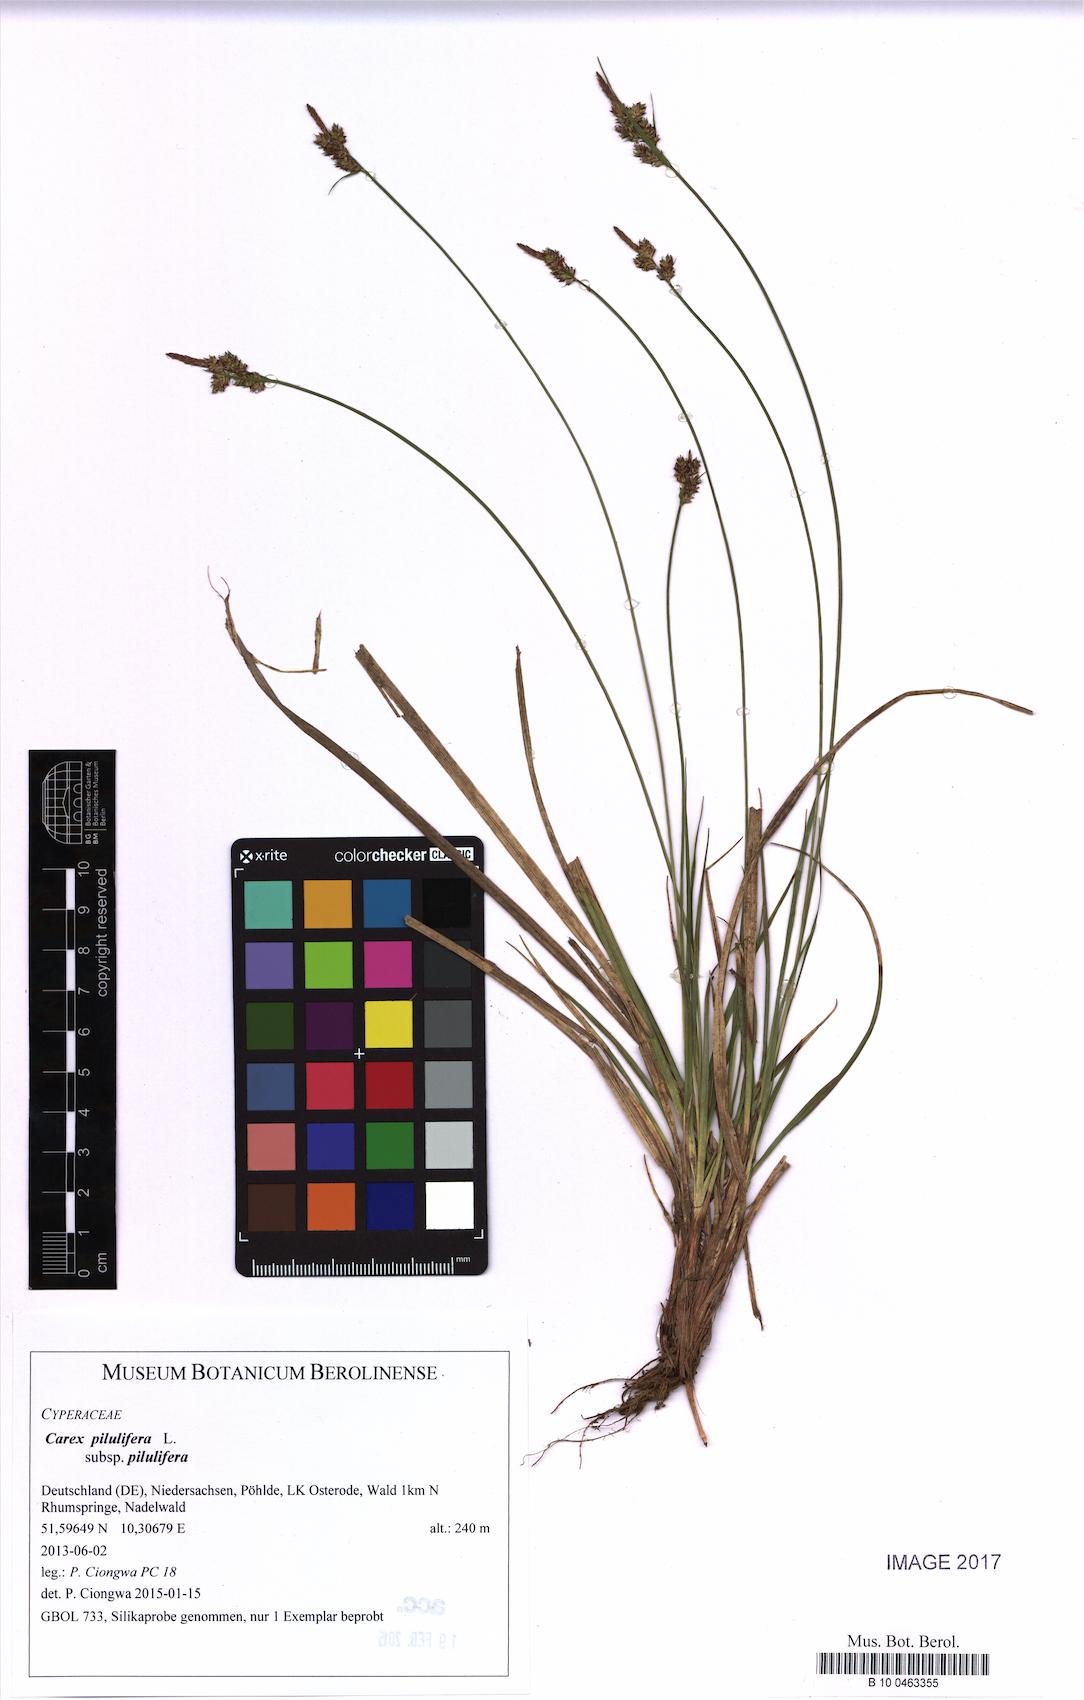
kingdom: Plantae
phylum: Tracheophyta
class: Liliopsida
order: Poales
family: Cyperaceae
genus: Carex
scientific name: Carex pilulifera
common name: Pill sedge
